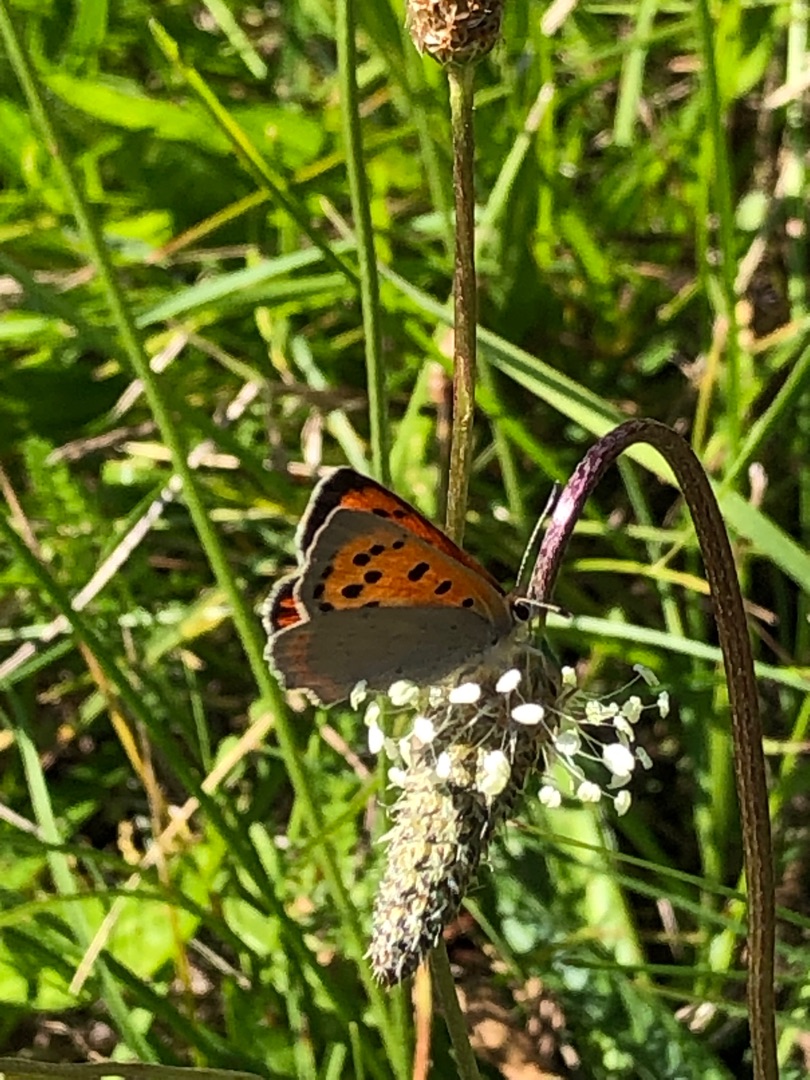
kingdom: Animalia
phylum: Arthropoda
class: Insecta
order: Lepidoptera
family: Lycaenidae
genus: Lycaena
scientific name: Lycaena phlaeas
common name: Lille ildfugl
